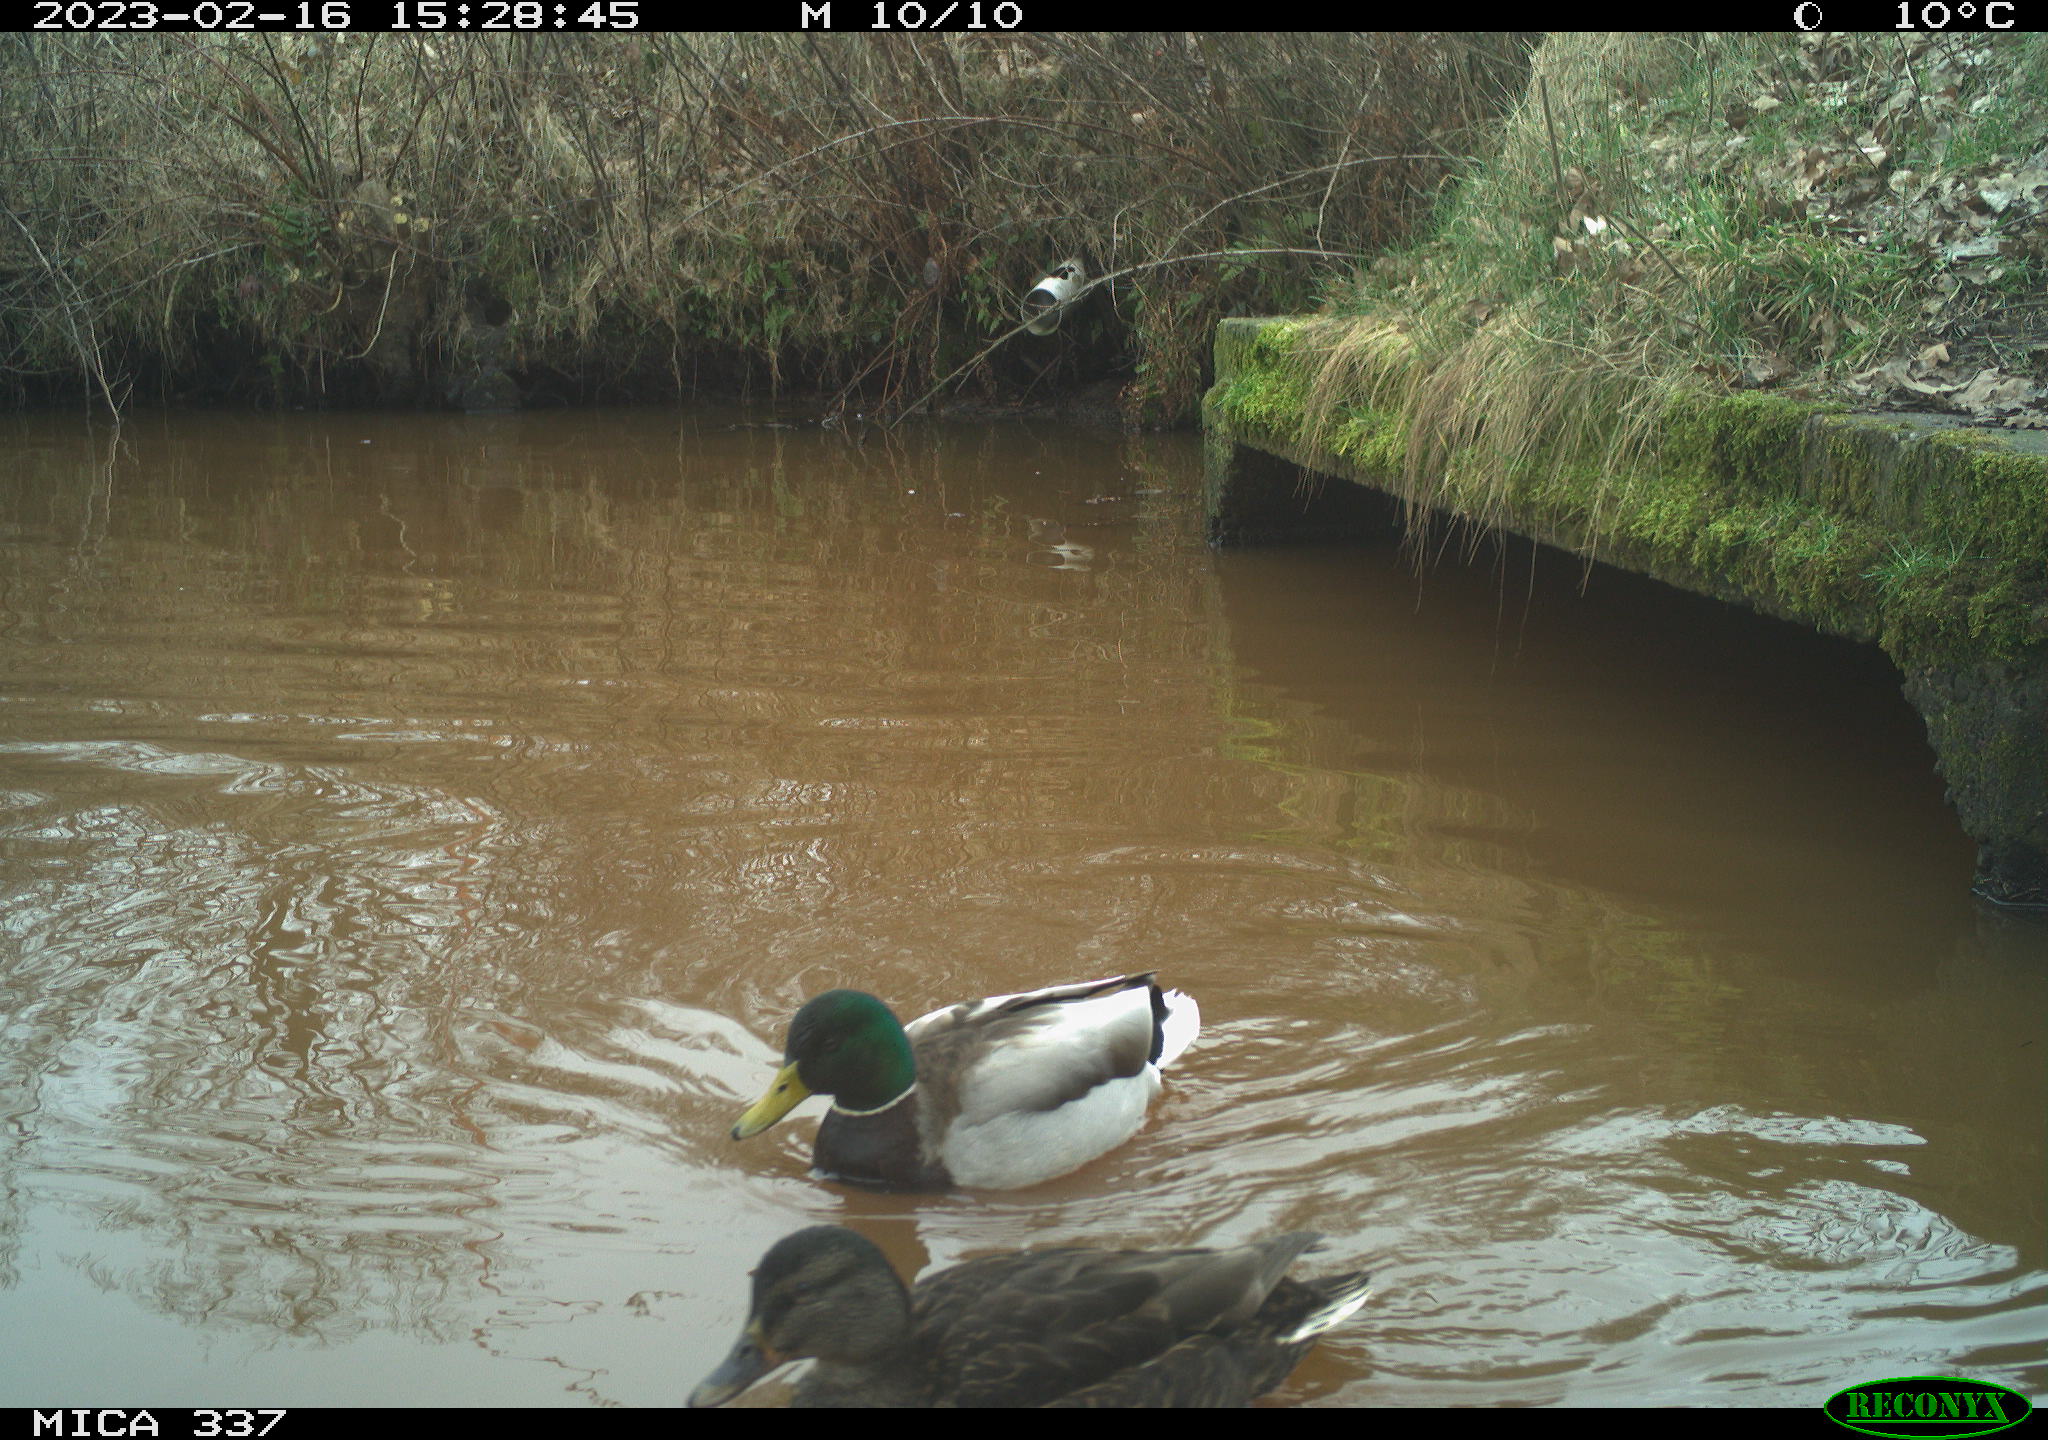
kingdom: Animalia
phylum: Chordata
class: Aves
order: Anseriformes
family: Anatidae
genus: Anas
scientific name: Anas
